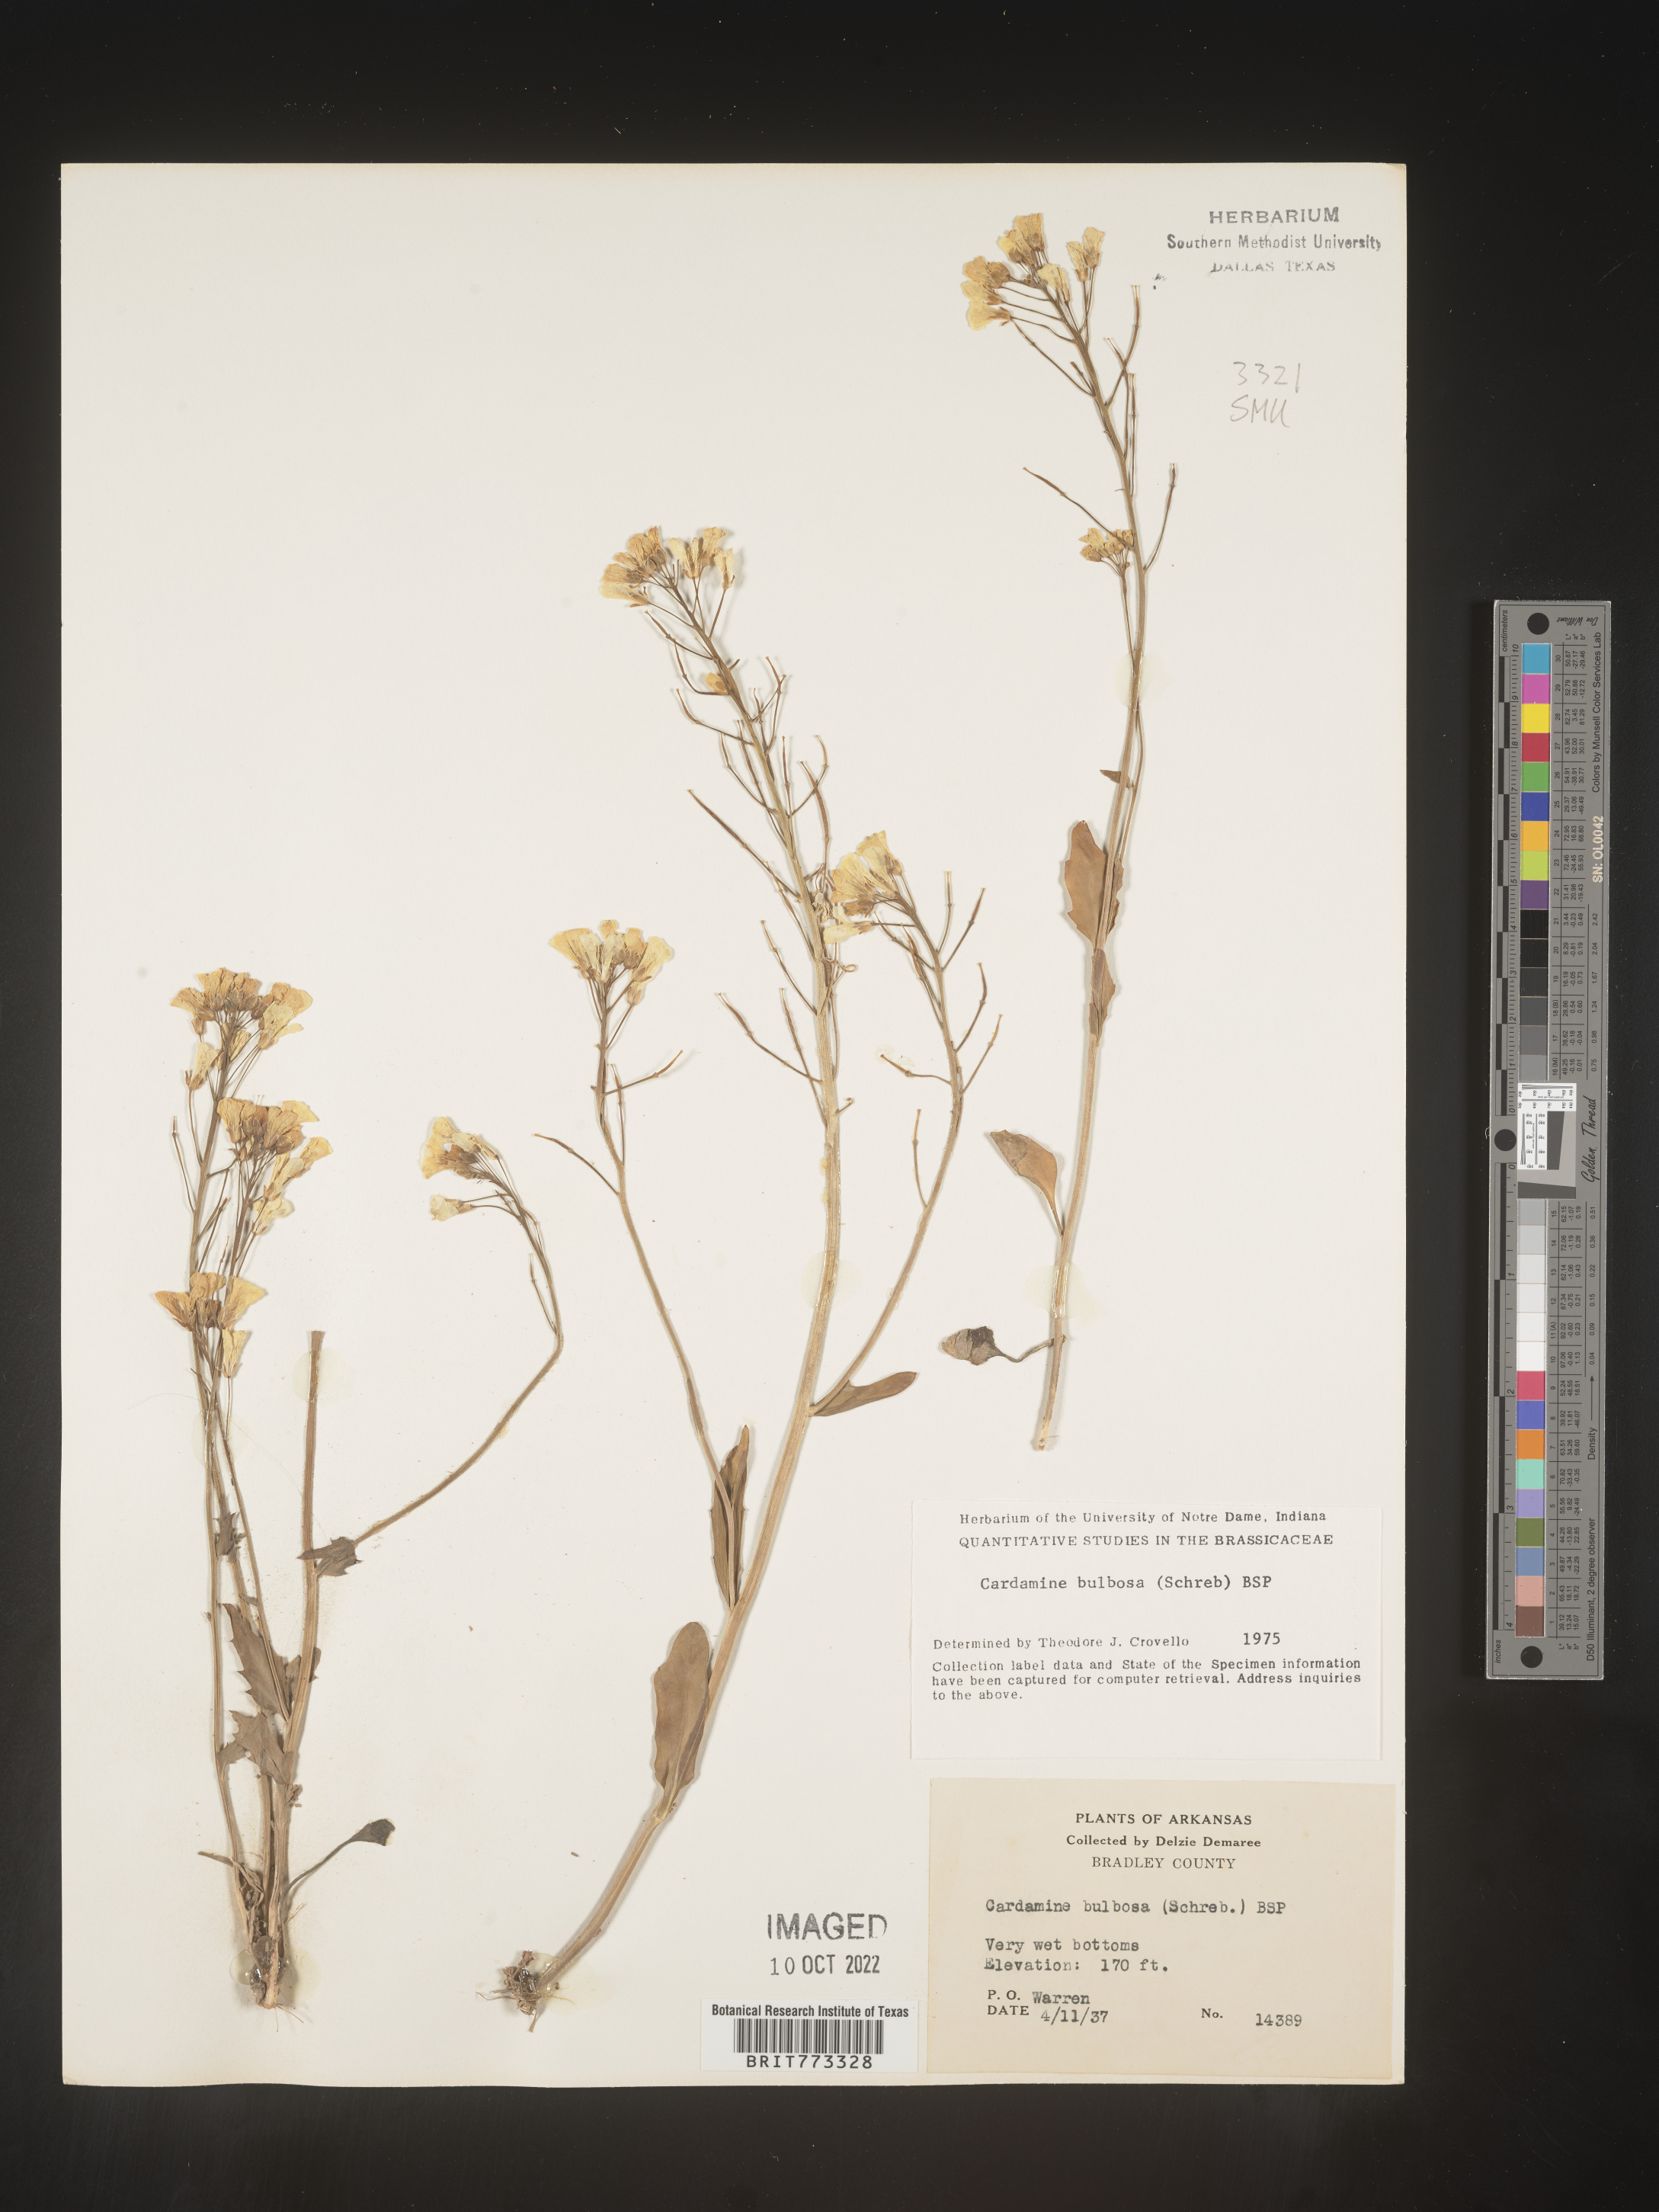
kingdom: Plantae
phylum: Tracheophyta
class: Magnoliopsida
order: Brassicales
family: Brassicaceae
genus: Cardamine
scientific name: Cardamine bulbosa
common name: Spring cress
